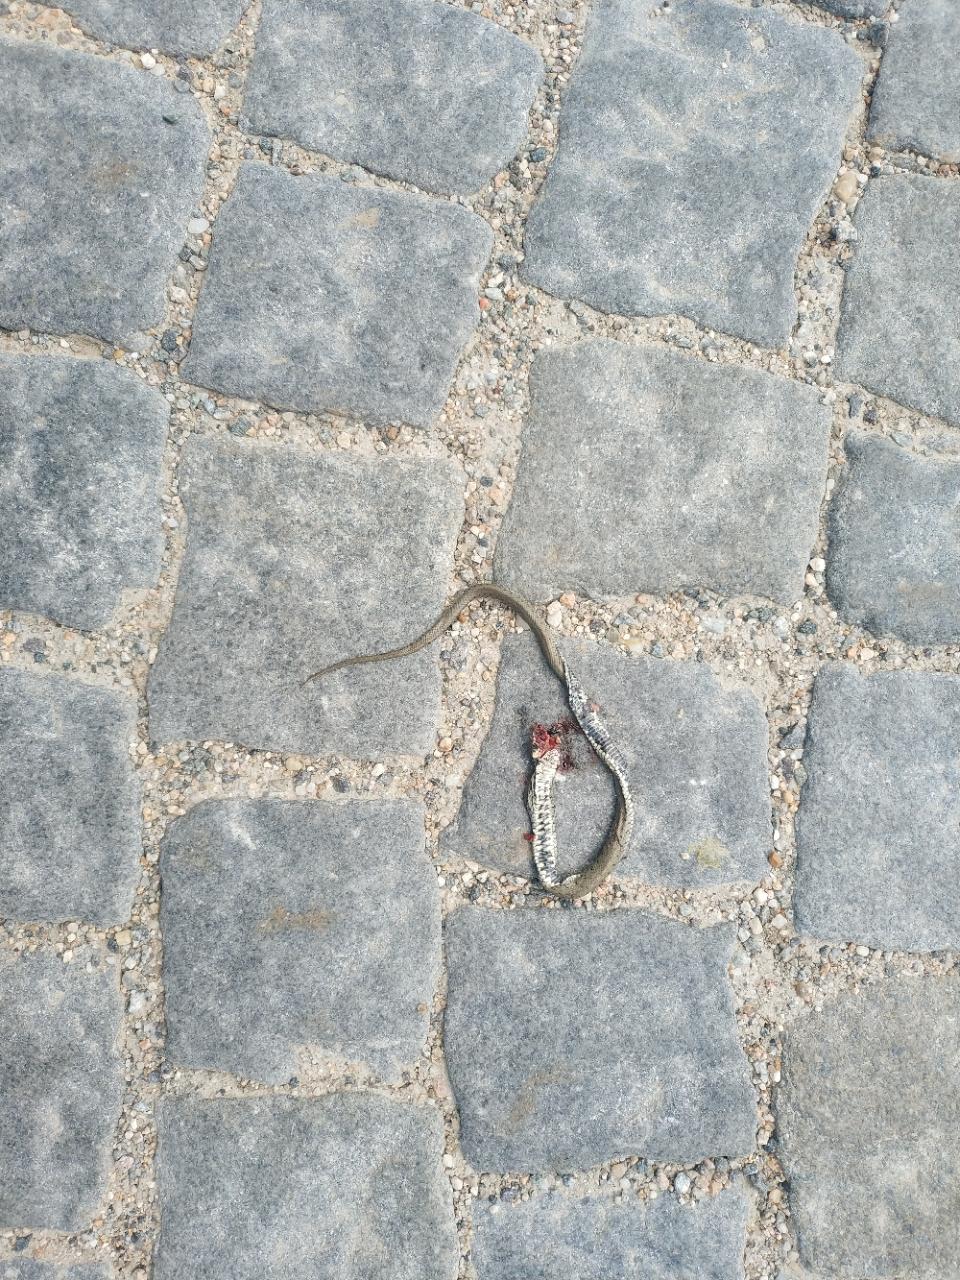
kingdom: Animalia
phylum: Chordata
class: Squamata
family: Colubridae
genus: Natrix
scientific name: Natrix natrix
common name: Grass snake
